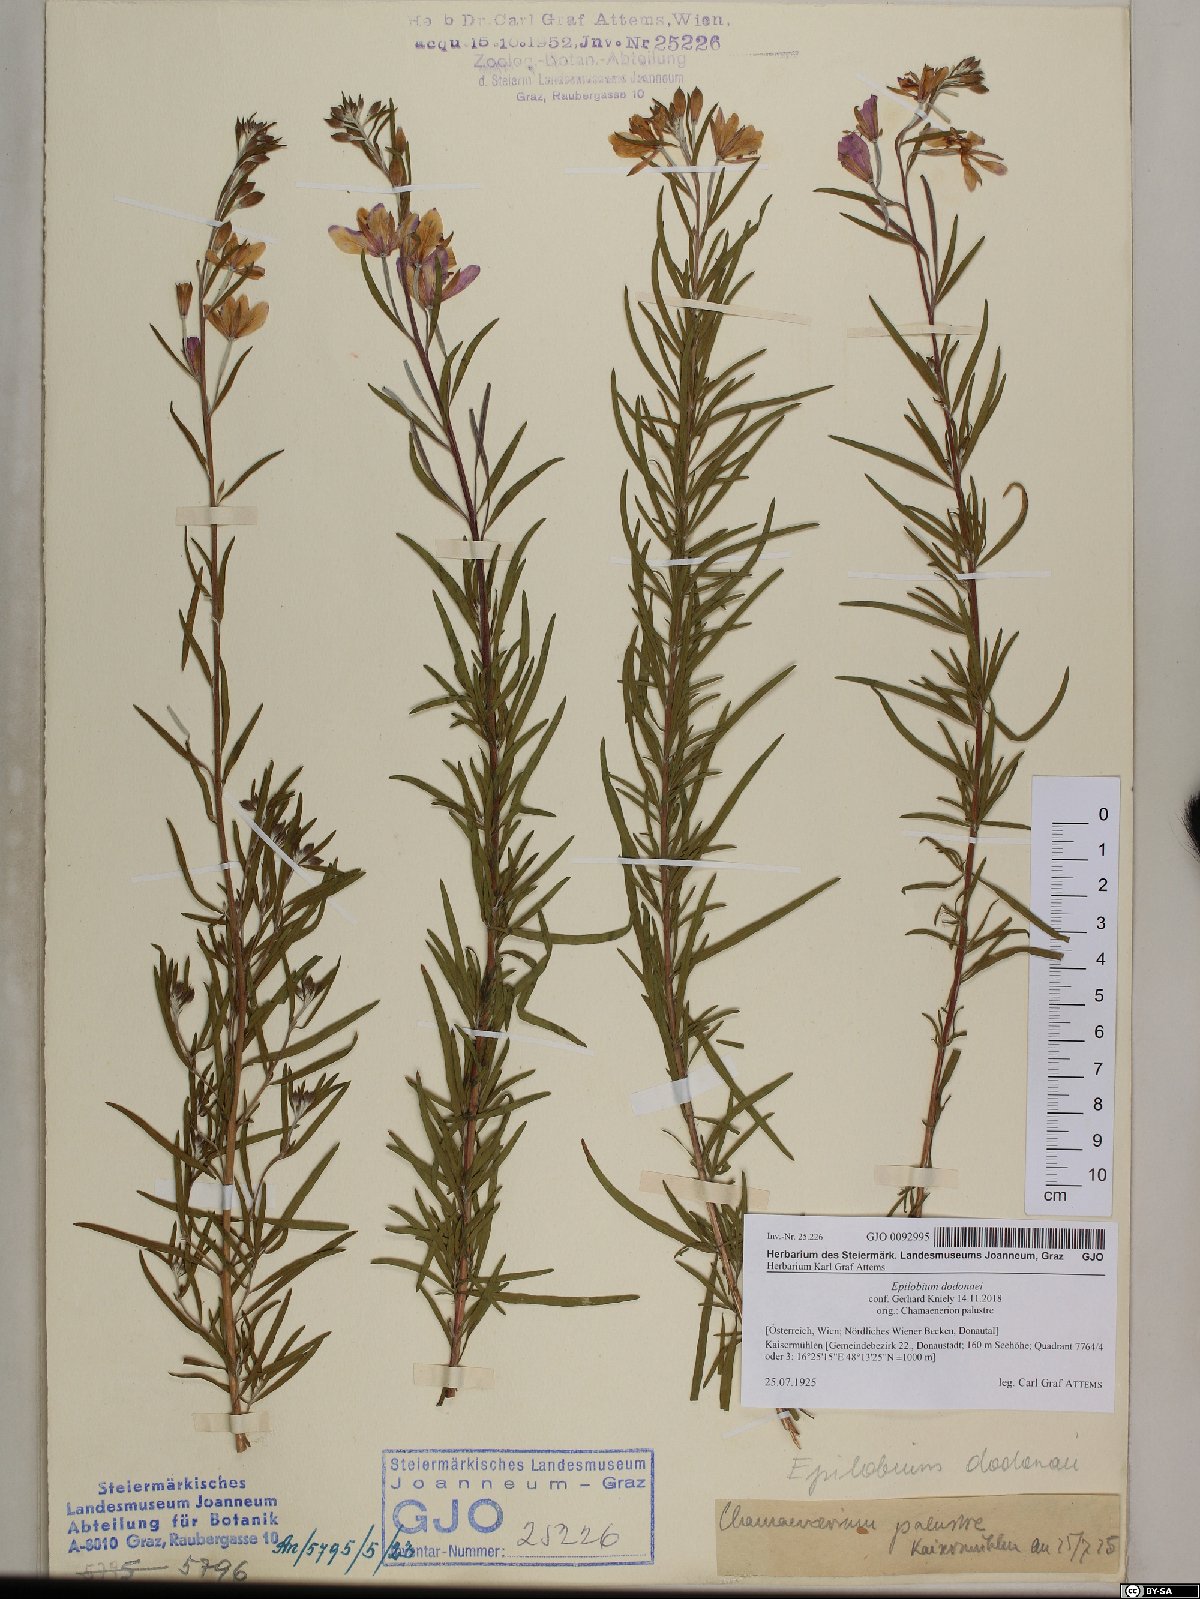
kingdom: Plantae
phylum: Tracheophyta
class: Magnoliopsida
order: Myrtales
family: Onagraceae
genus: Chamaenerion
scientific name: Chamaenerion dodonaei
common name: Rosemary-leaved willowherb
